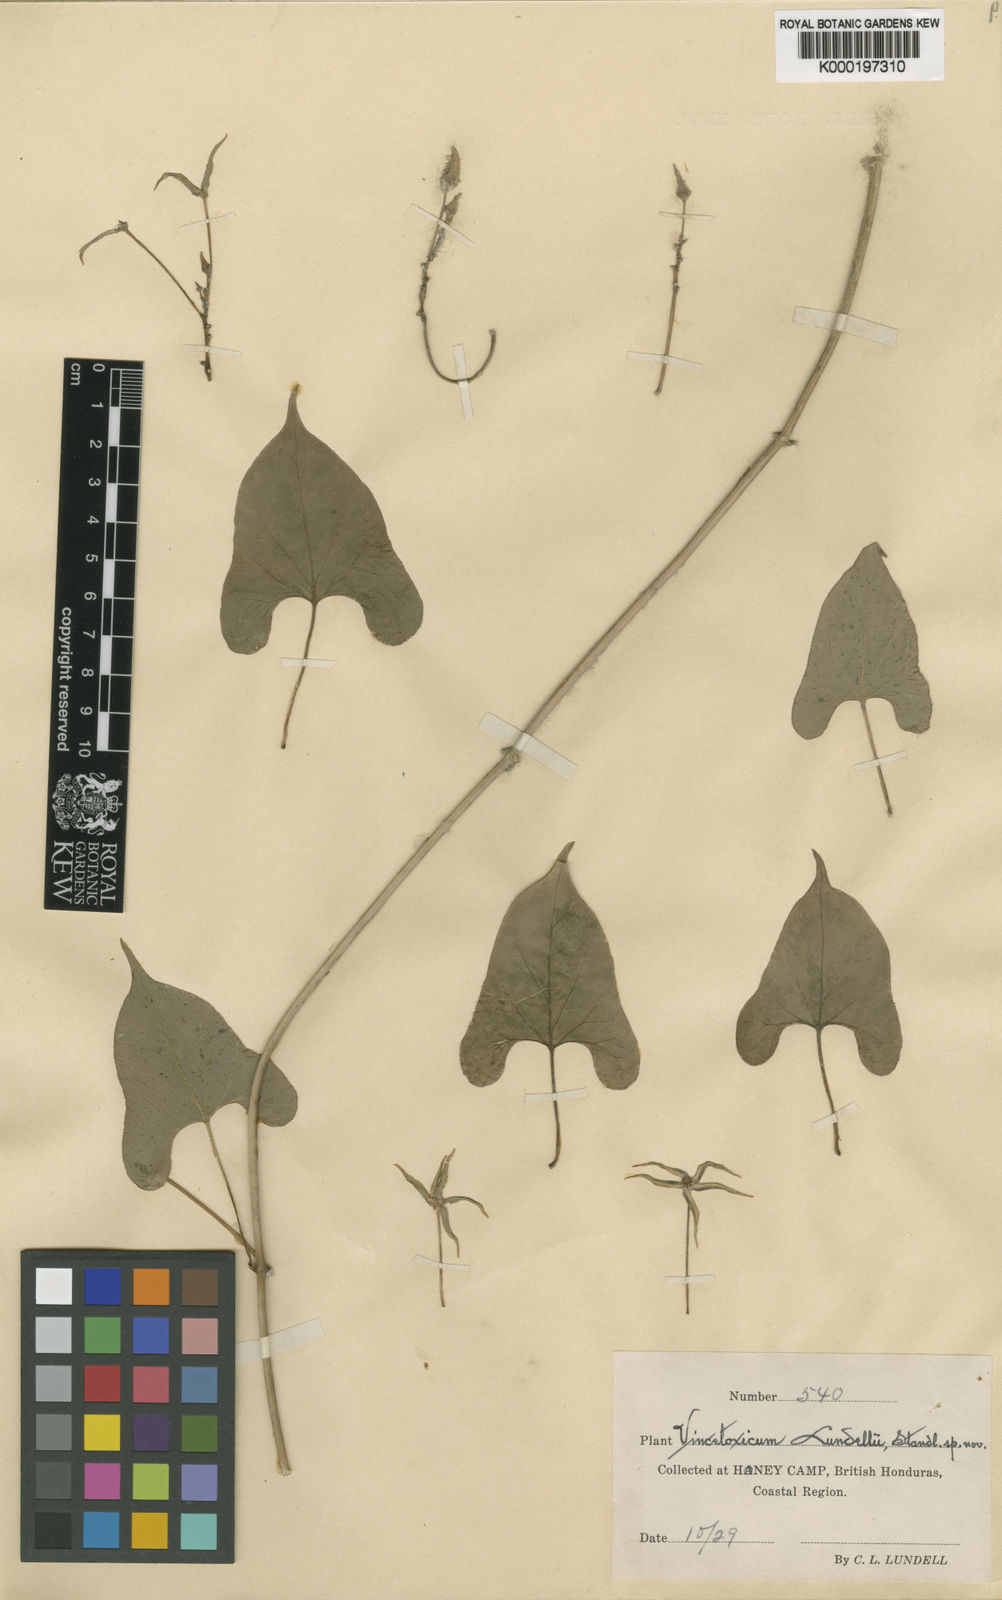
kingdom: Plantae
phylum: Tracheophyta
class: Magnoliopsida
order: Gentianales
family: Apocynaceae
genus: Gonolobus
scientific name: Gonolobus cteniophorus
